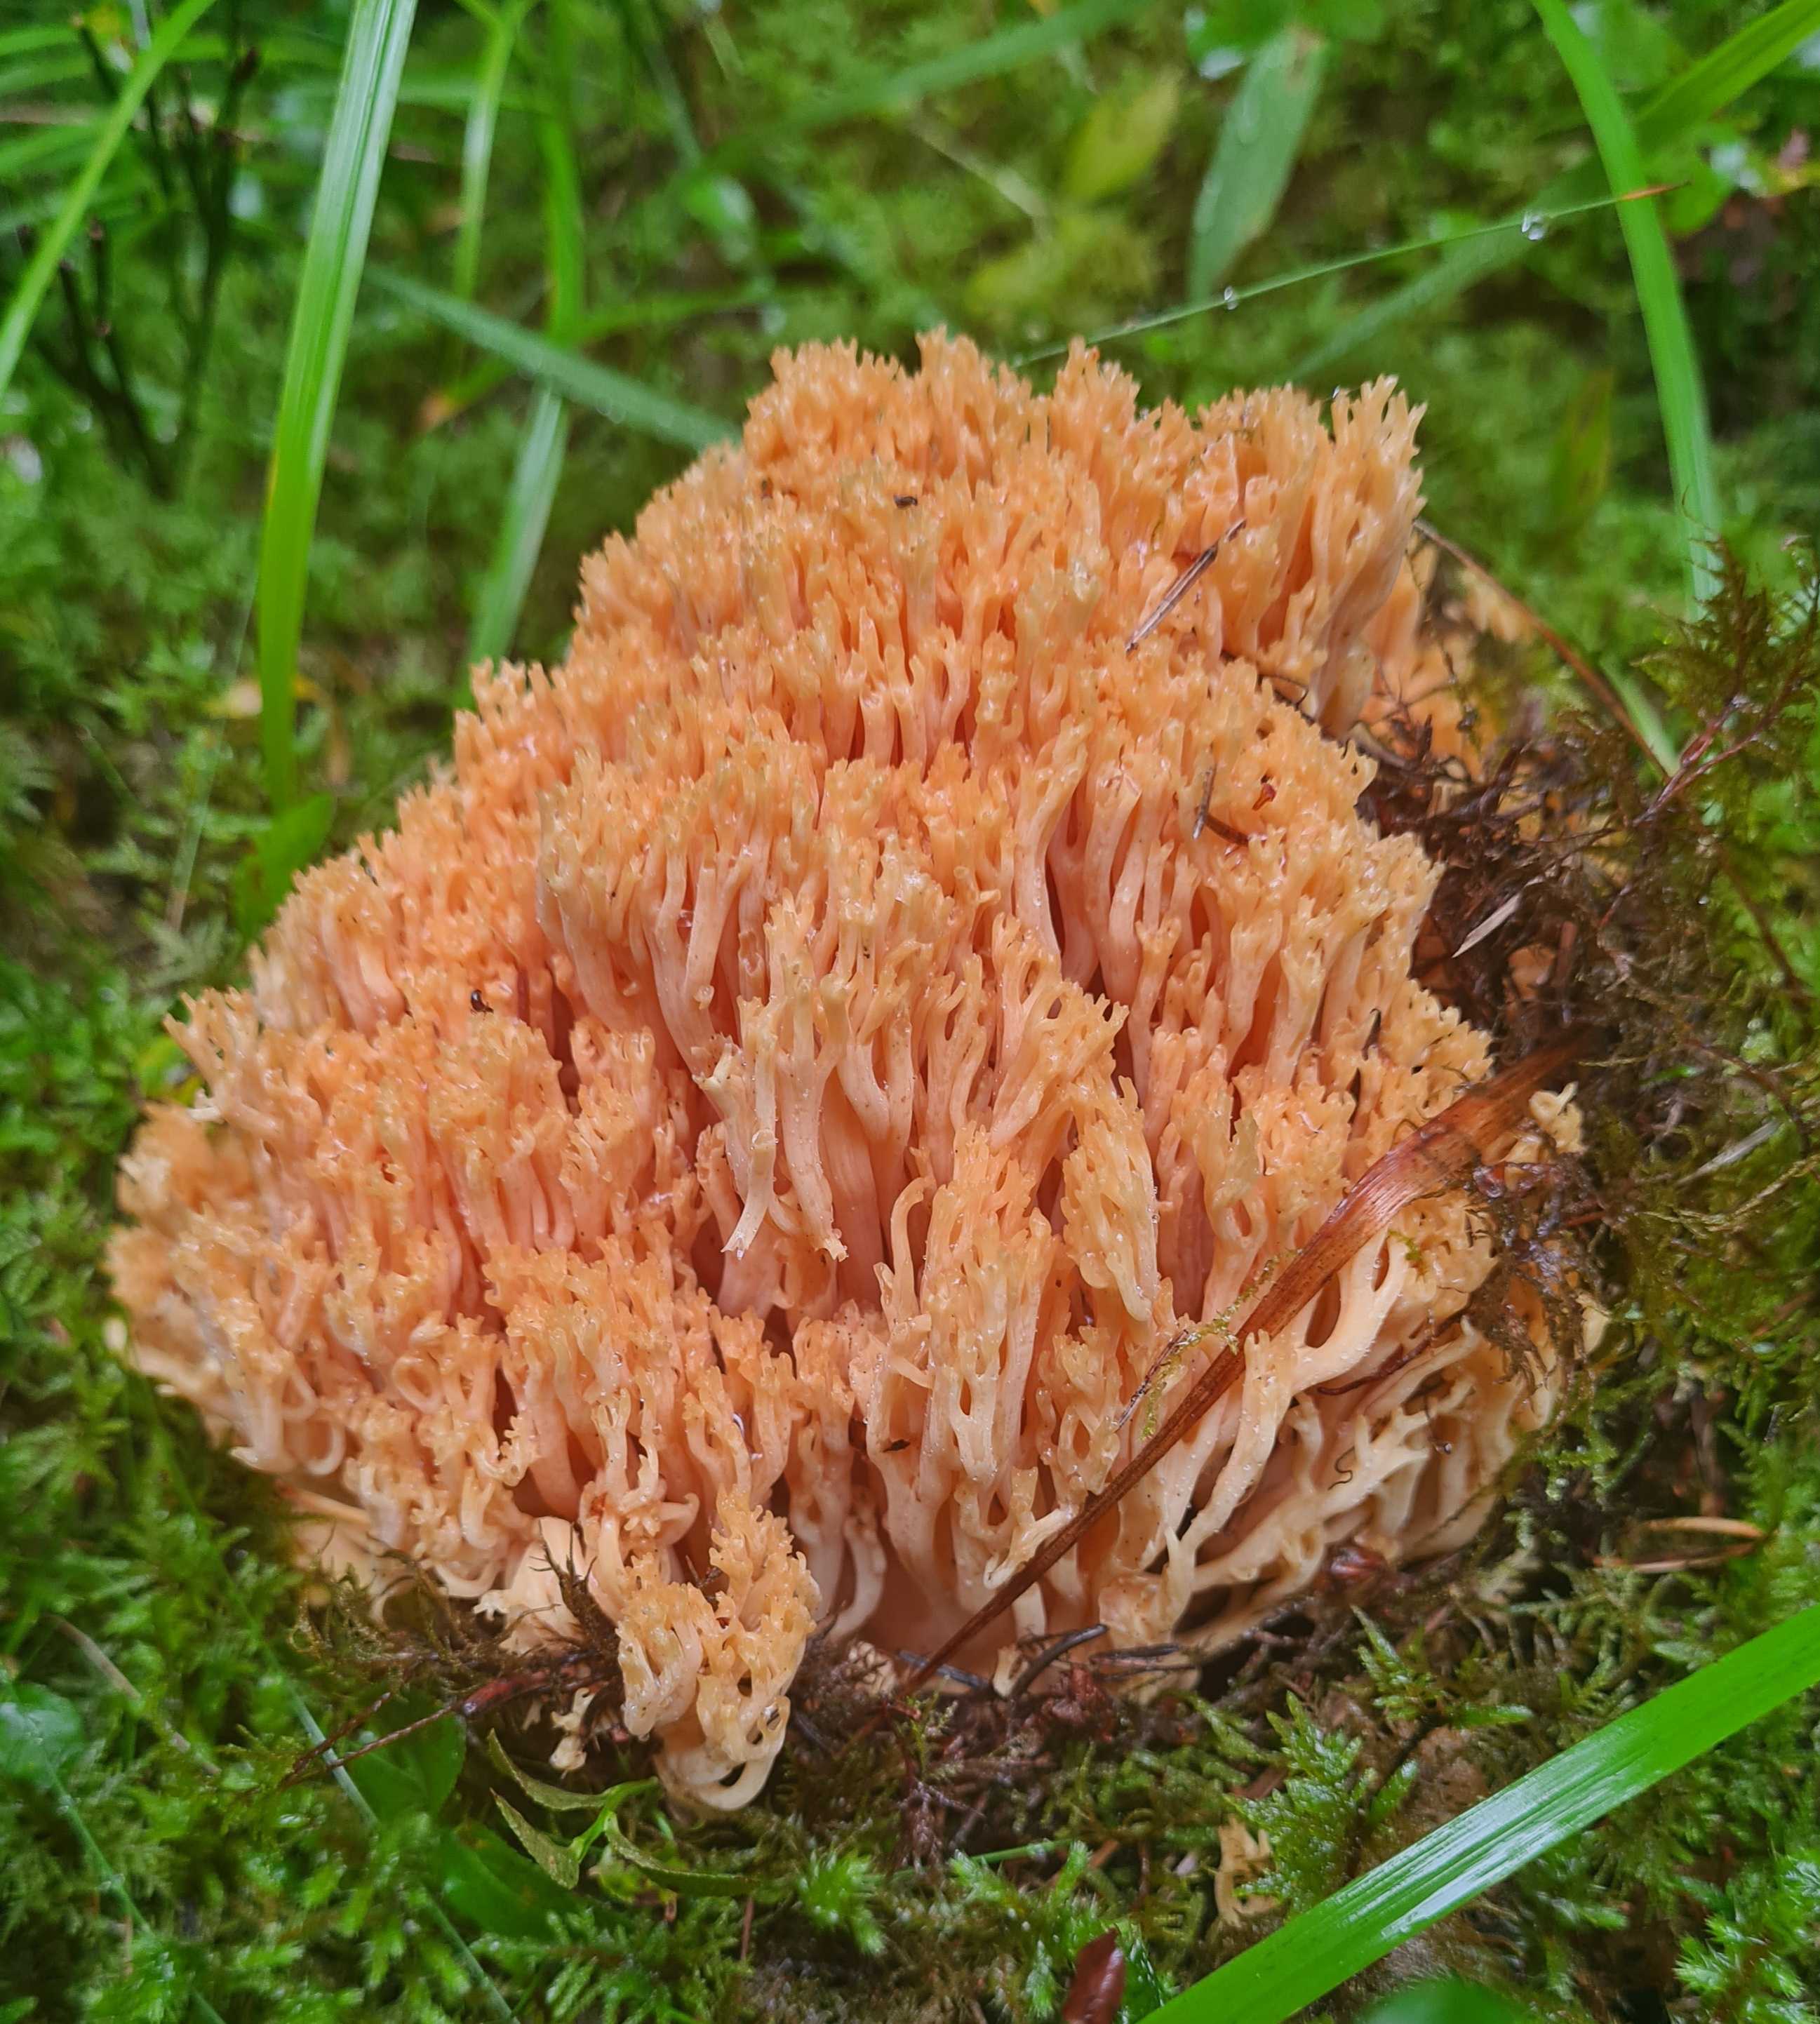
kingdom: Fungi
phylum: Basidiomycota
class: Agaricomycetes
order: Gomphales
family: Gomphaceae
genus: Ramaria
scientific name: Ramaria
